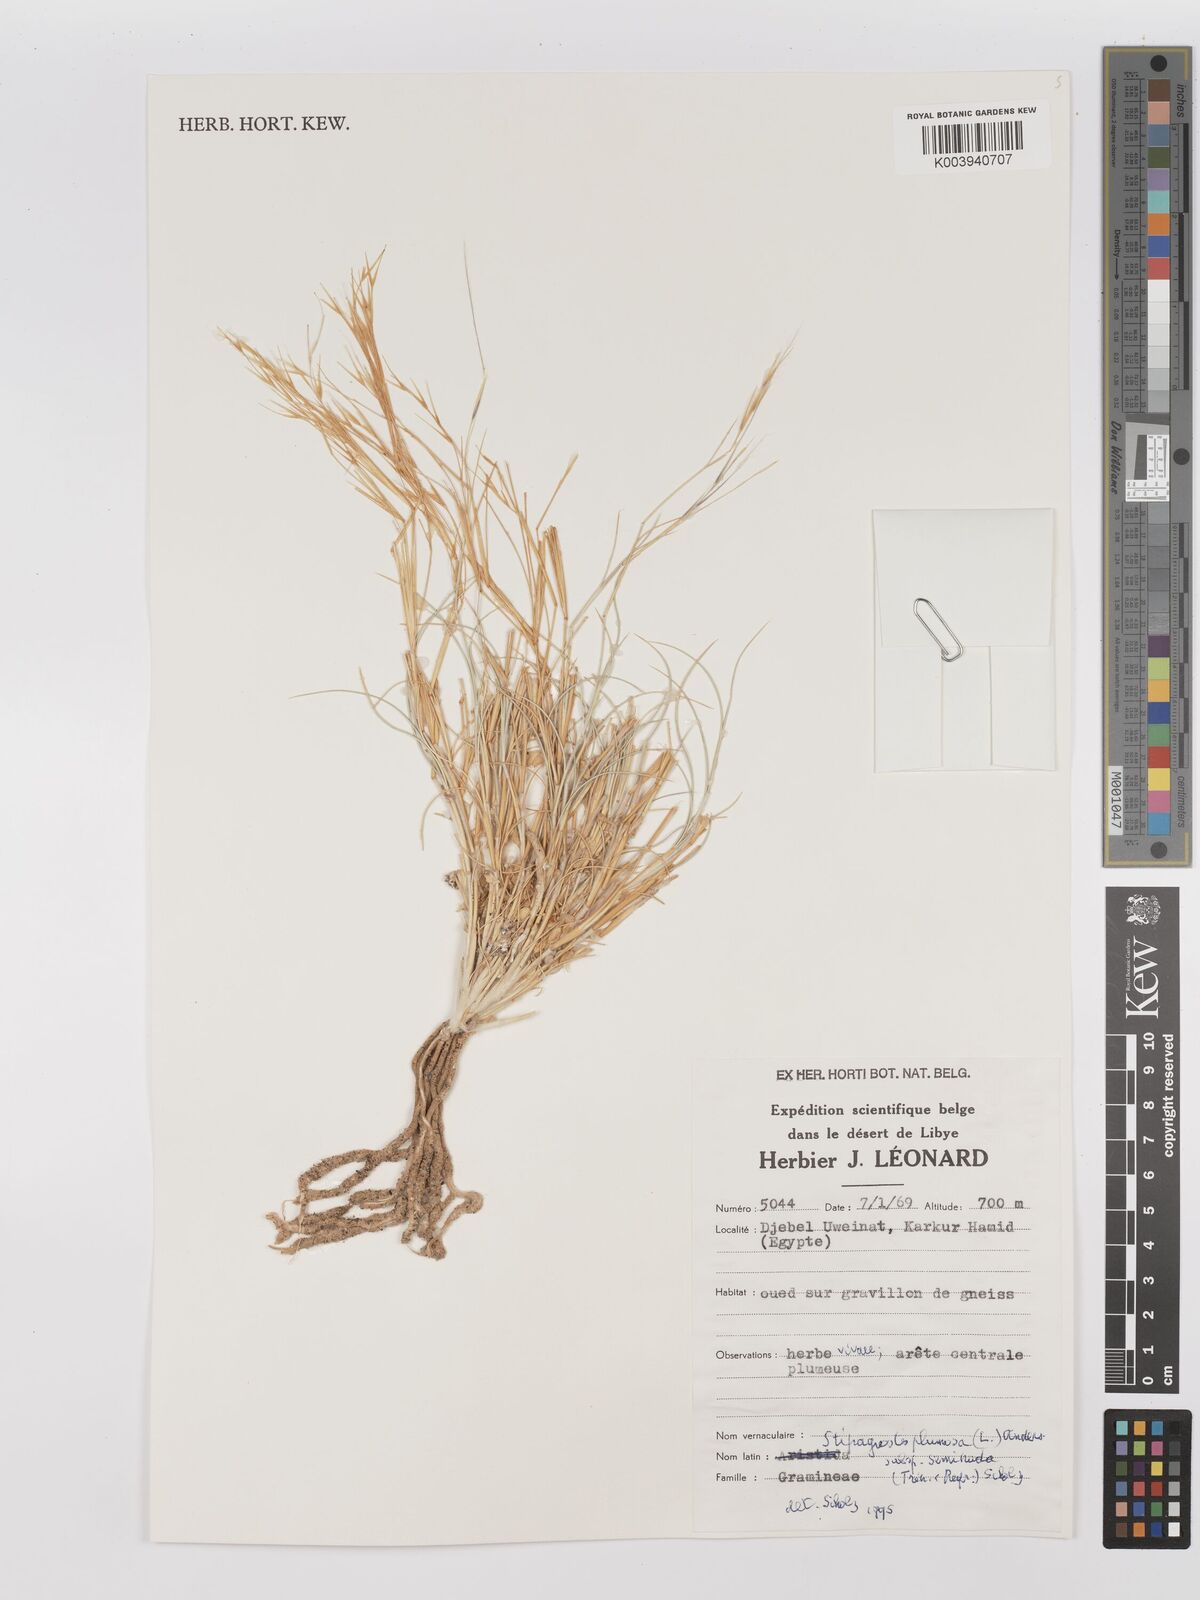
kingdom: Plantae
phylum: Tracheophyta
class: Liliopsida
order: Poales
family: Poaceae
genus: Stipagrostis
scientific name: Stipagrostis plumosa
